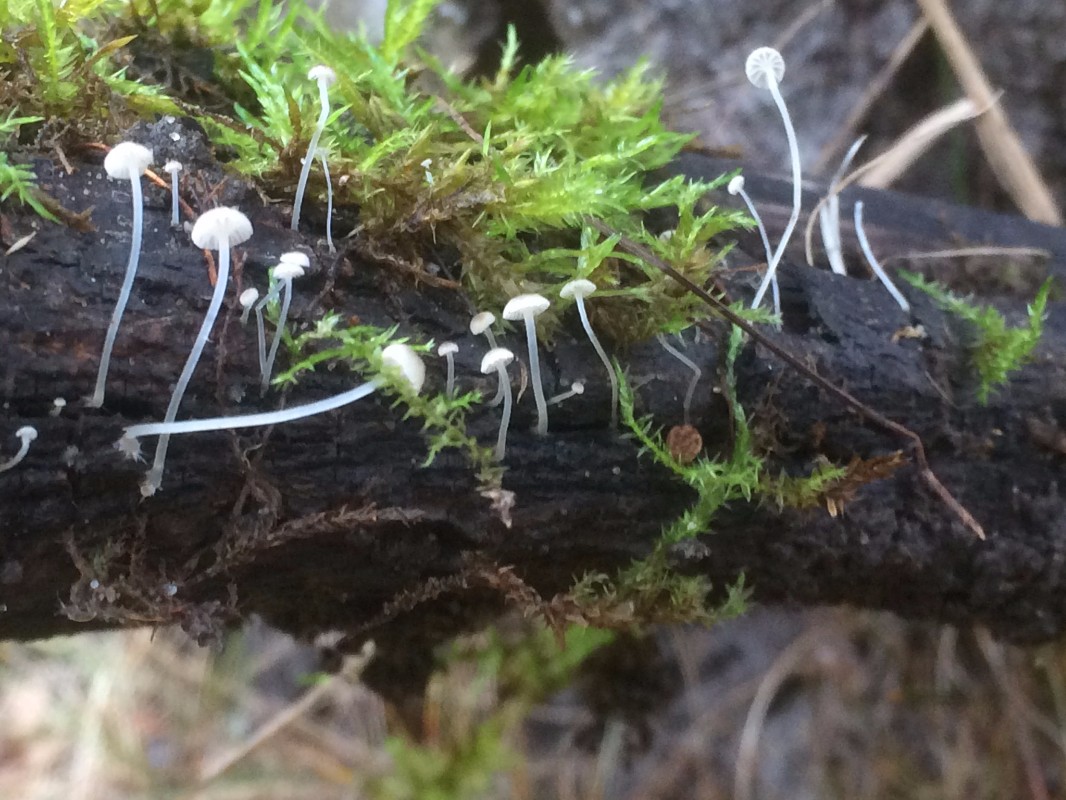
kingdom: Fungi
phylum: Basidiomycota
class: Agaricomycetes
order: Agaricales
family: Porotheleaceae
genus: Phloeomana
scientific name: Phloeomana speirea
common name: kvist-huesvamp
